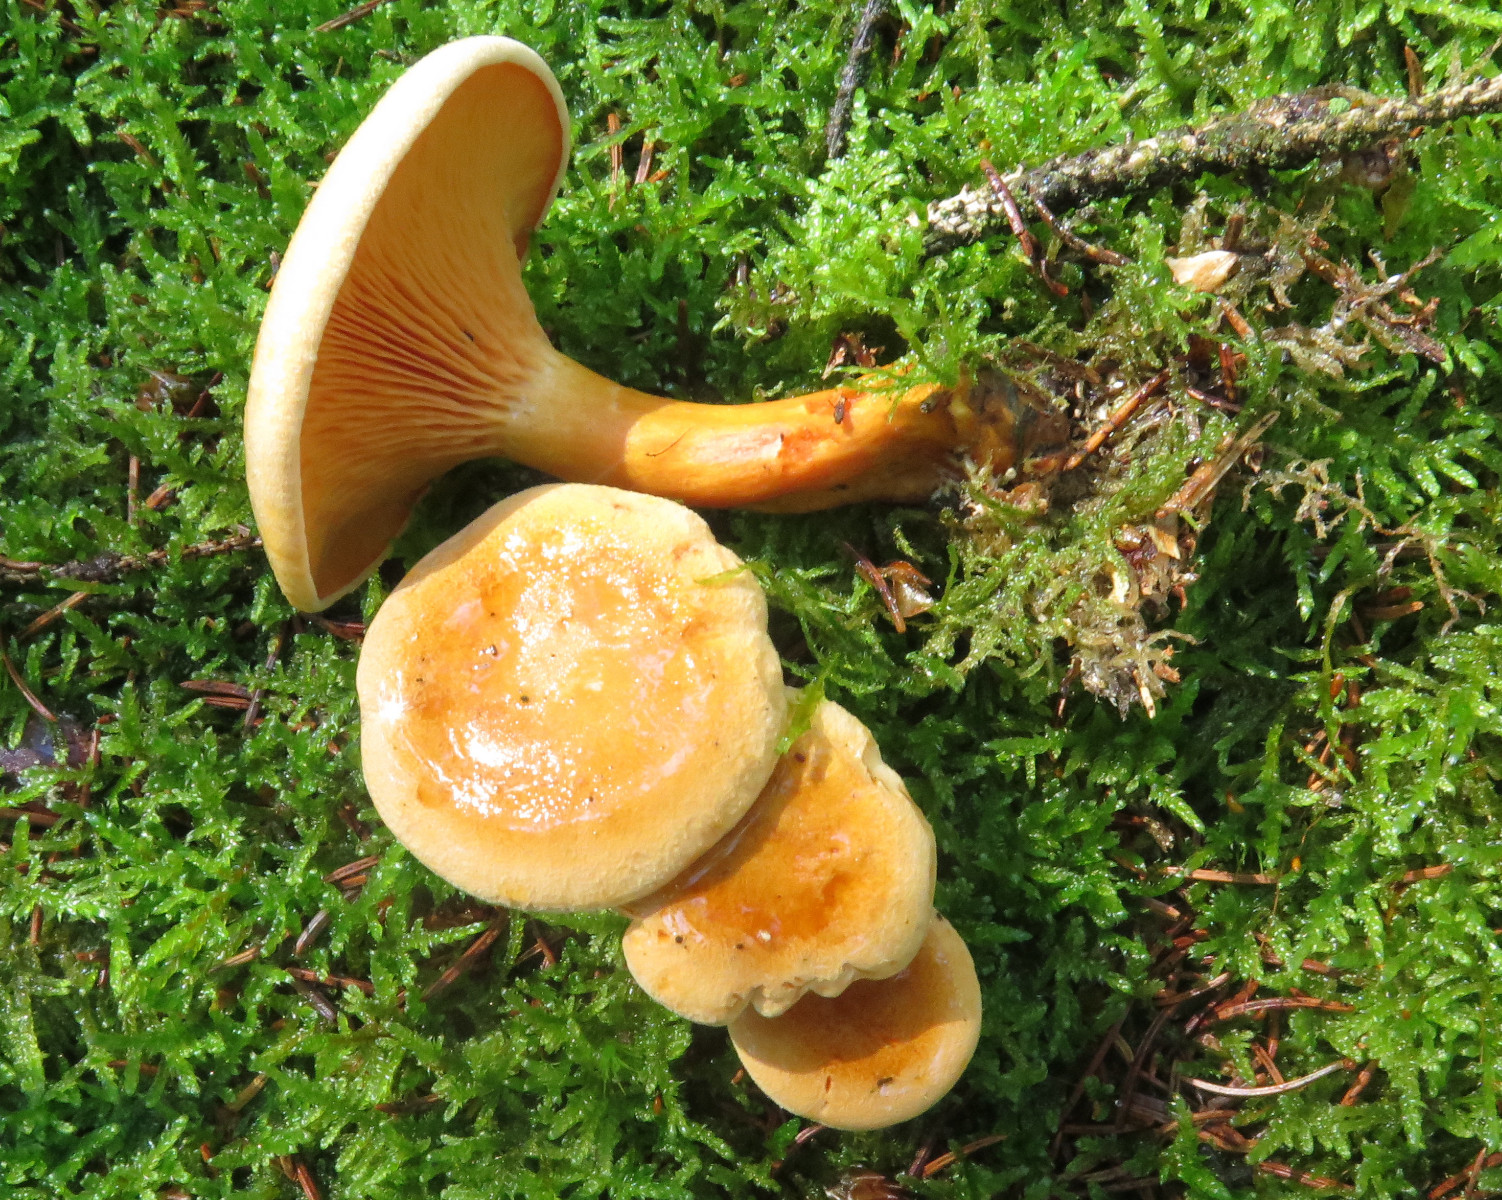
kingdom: Fungi
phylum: Basidiomycota
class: Agaricomycetes
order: Boletales
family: Hygrophoropsidaceae
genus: Hygrophoropsis
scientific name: Hygrophoropsis aurantiaca
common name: almindelig orangekantarel
